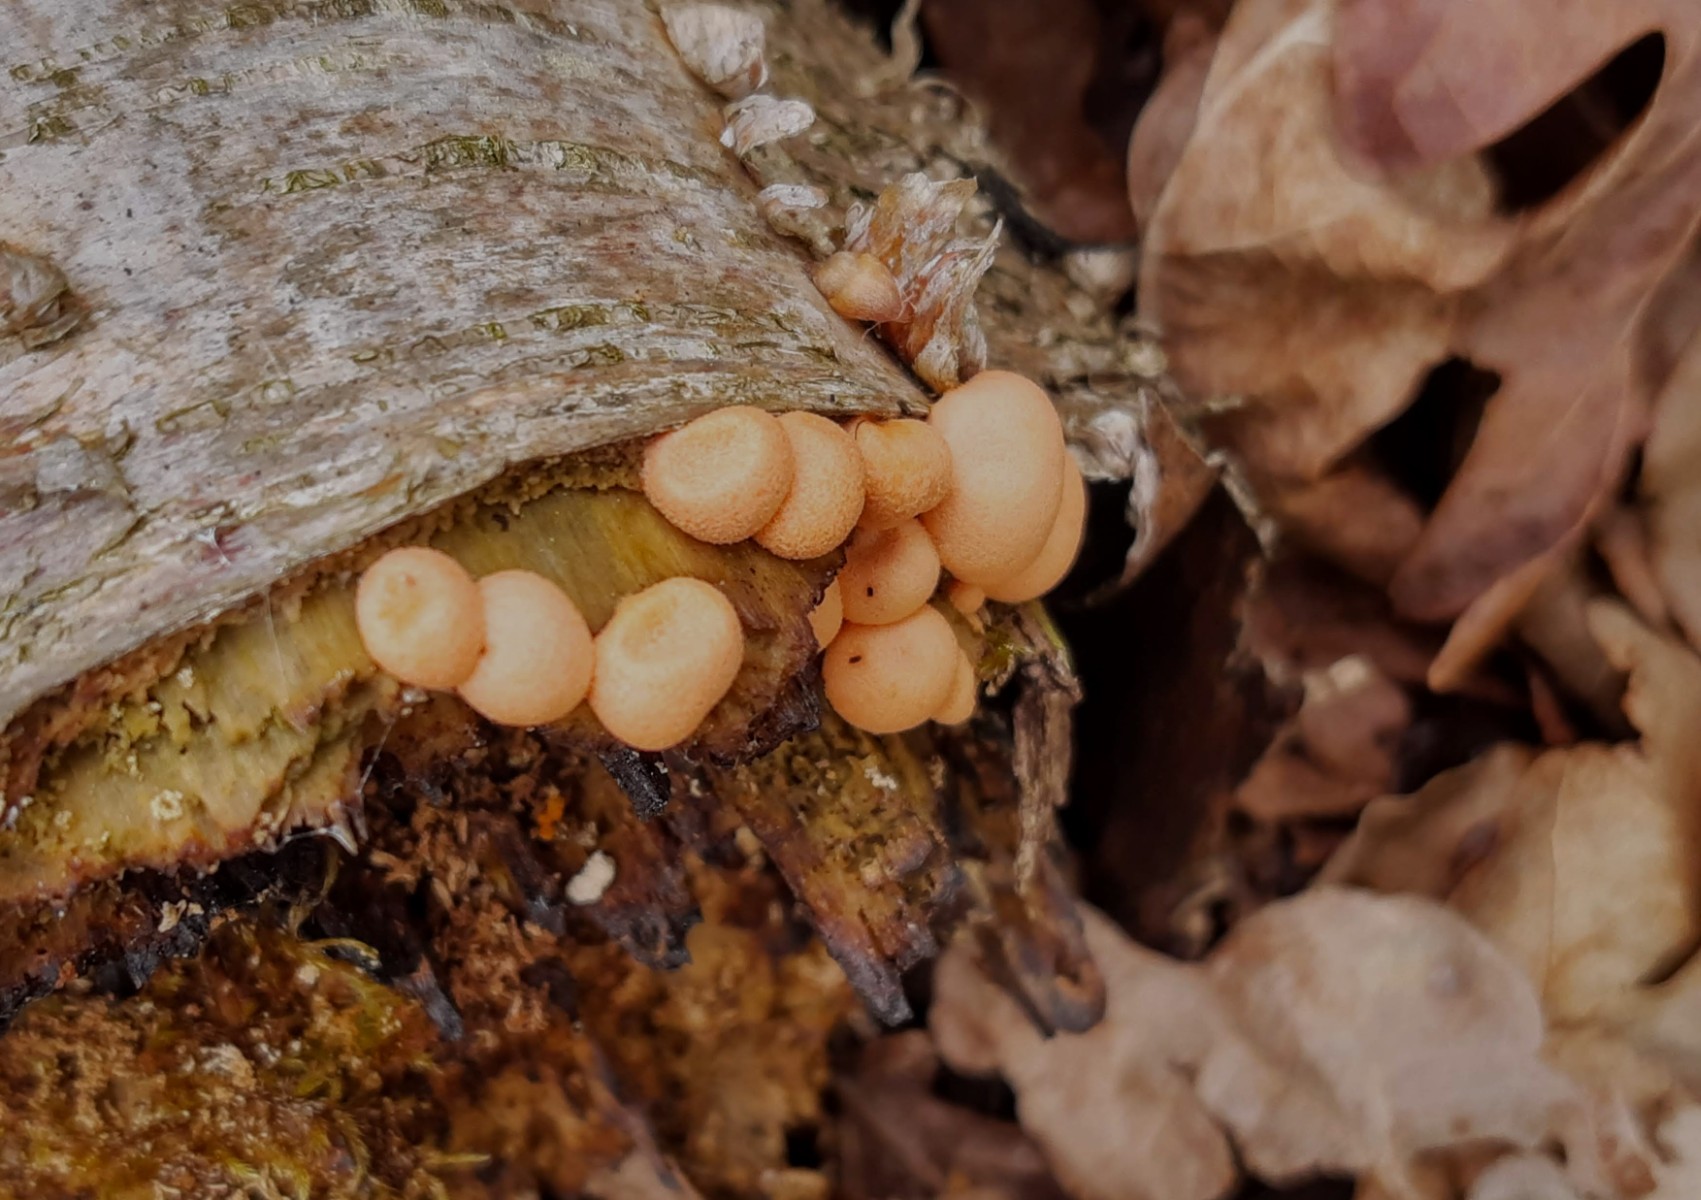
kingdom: Protozoa
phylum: Mycetozoa
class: Myxomycetes
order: Cribrariales
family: Tubiferaceae
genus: Lycogala
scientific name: Lycogala epidendrum
